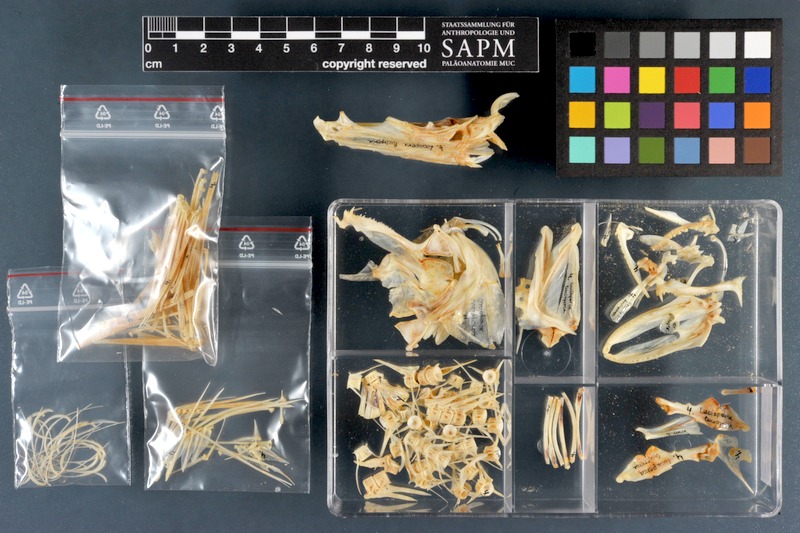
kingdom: Animalia
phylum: Chordata
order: Perciformes
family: Percidae
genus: Sander
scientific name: Sander lucioperca
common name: Pikeperch
